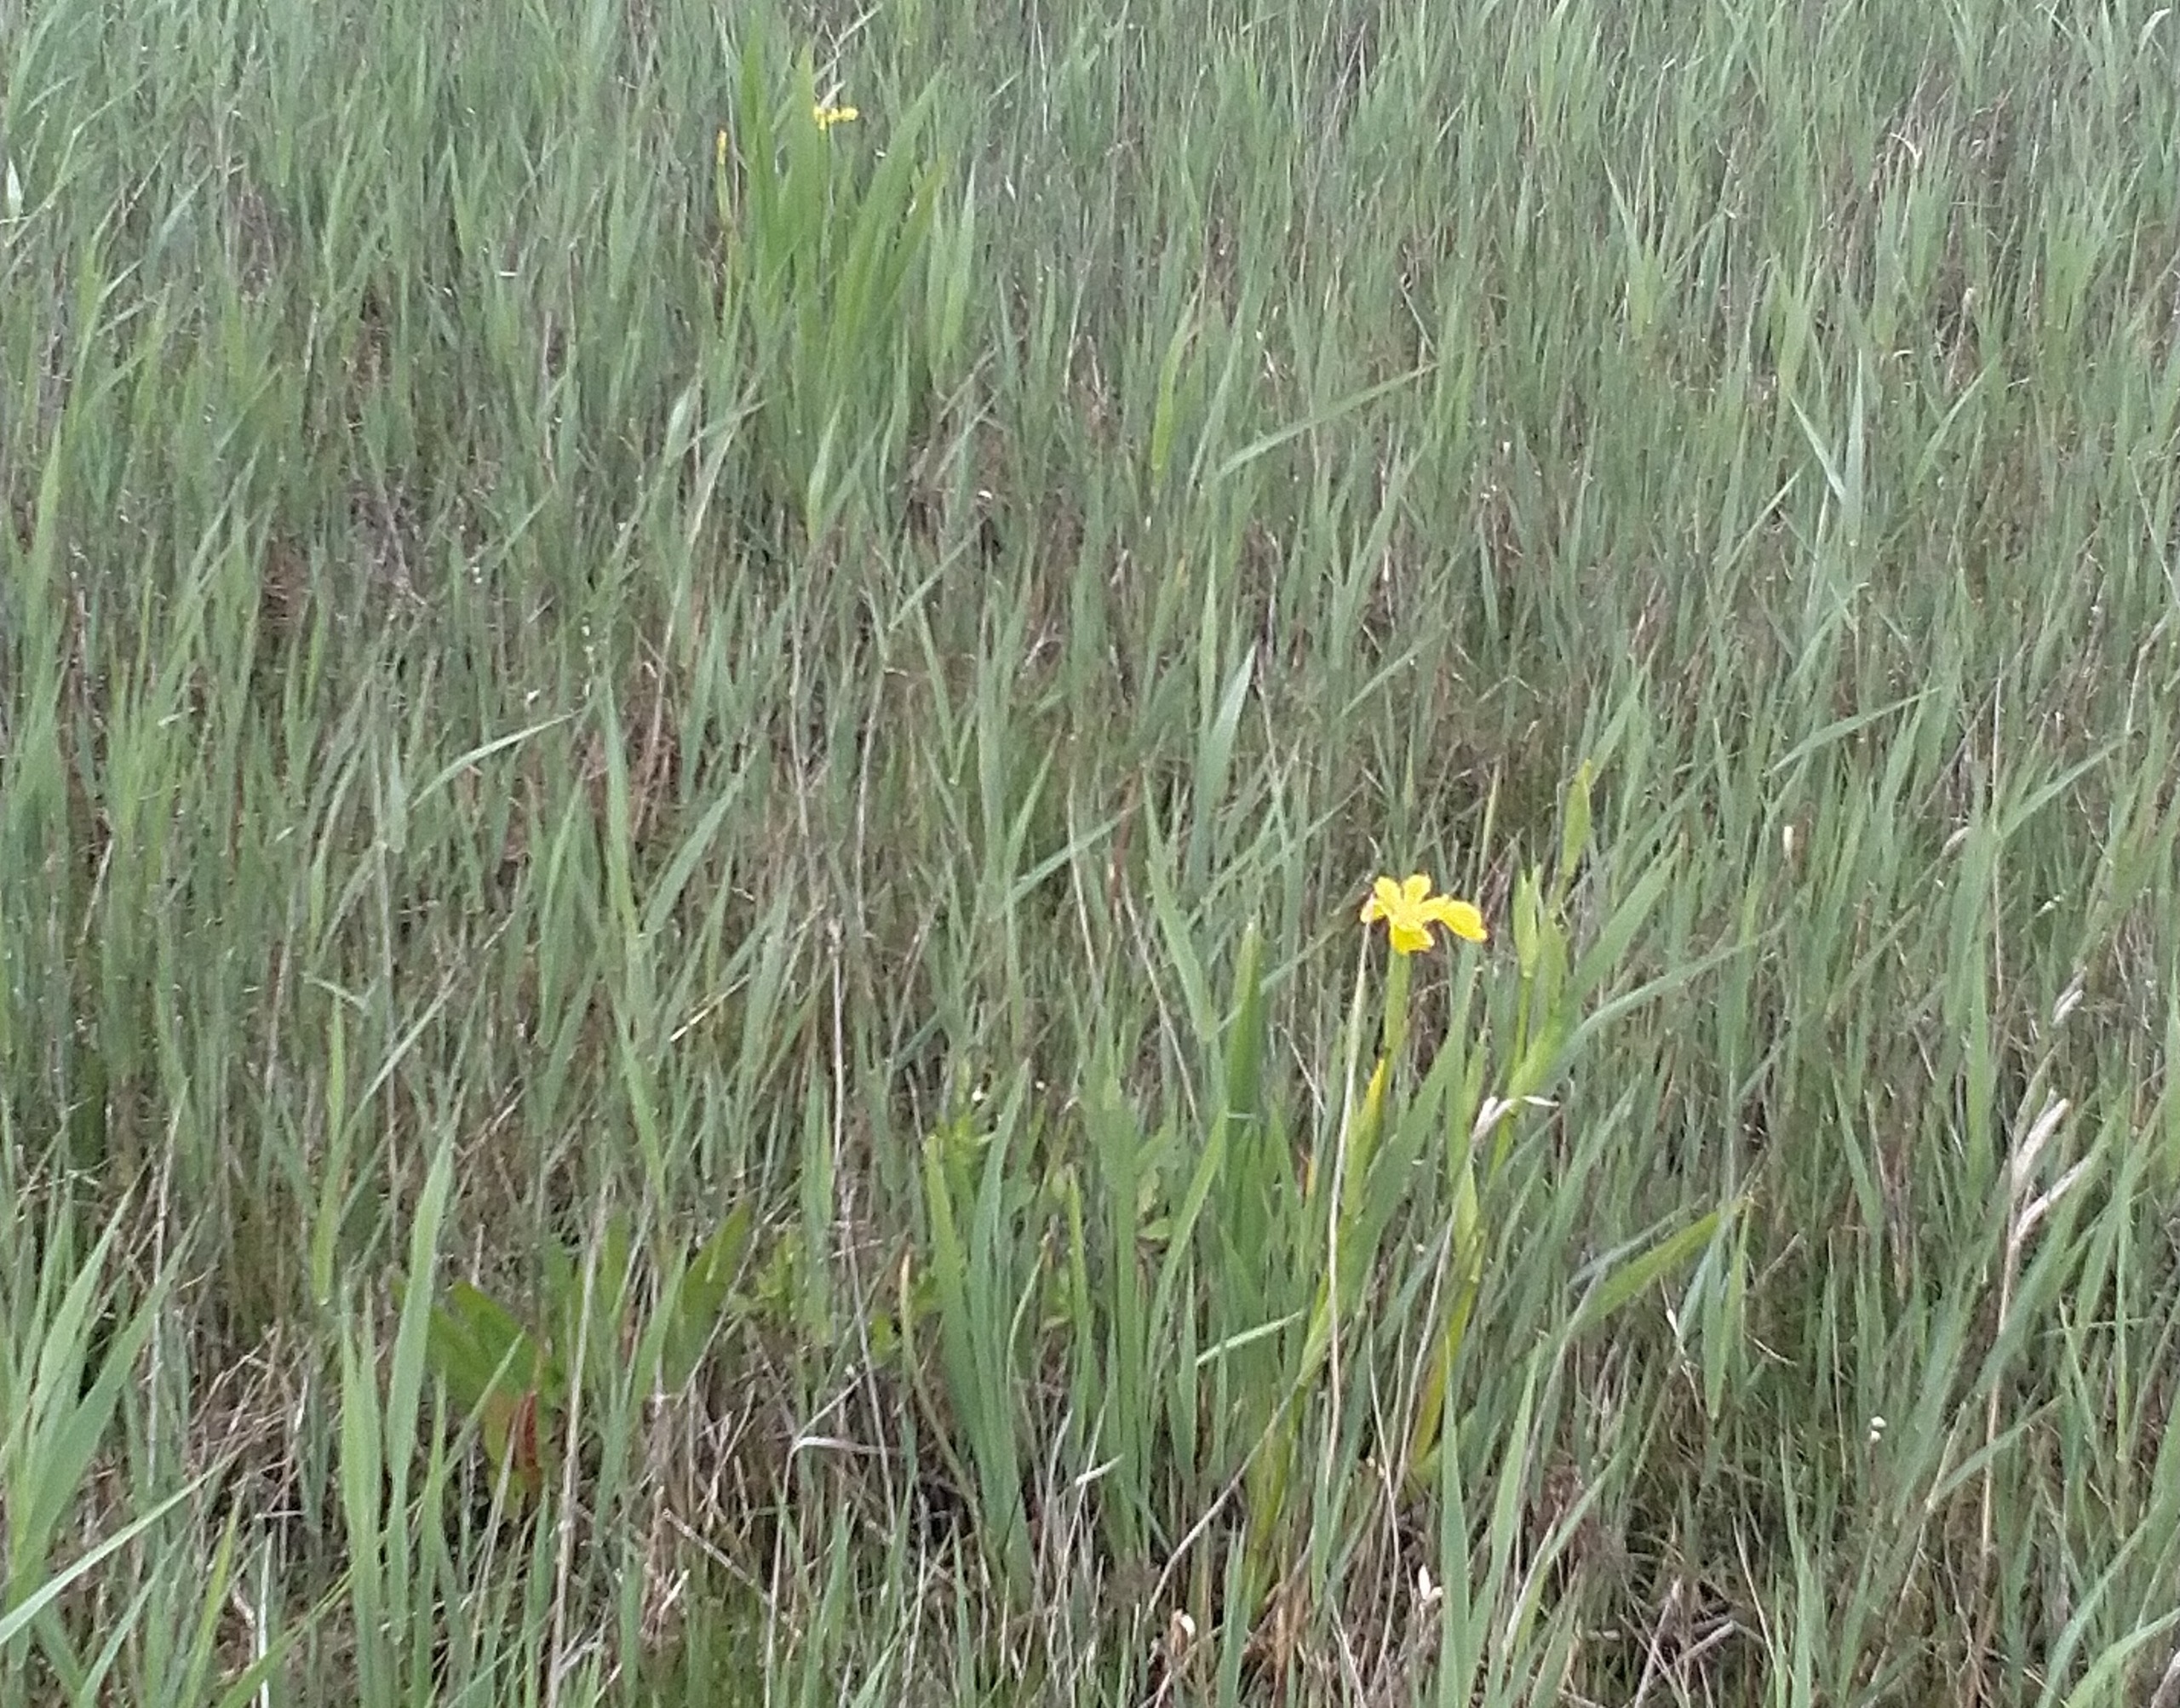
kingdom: Plantae
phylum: Tracheophyta
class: Liliopsida
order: Asparagales
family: Iridaceae
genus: Iris
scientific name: Iris pseudacorus
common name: Gul iris
